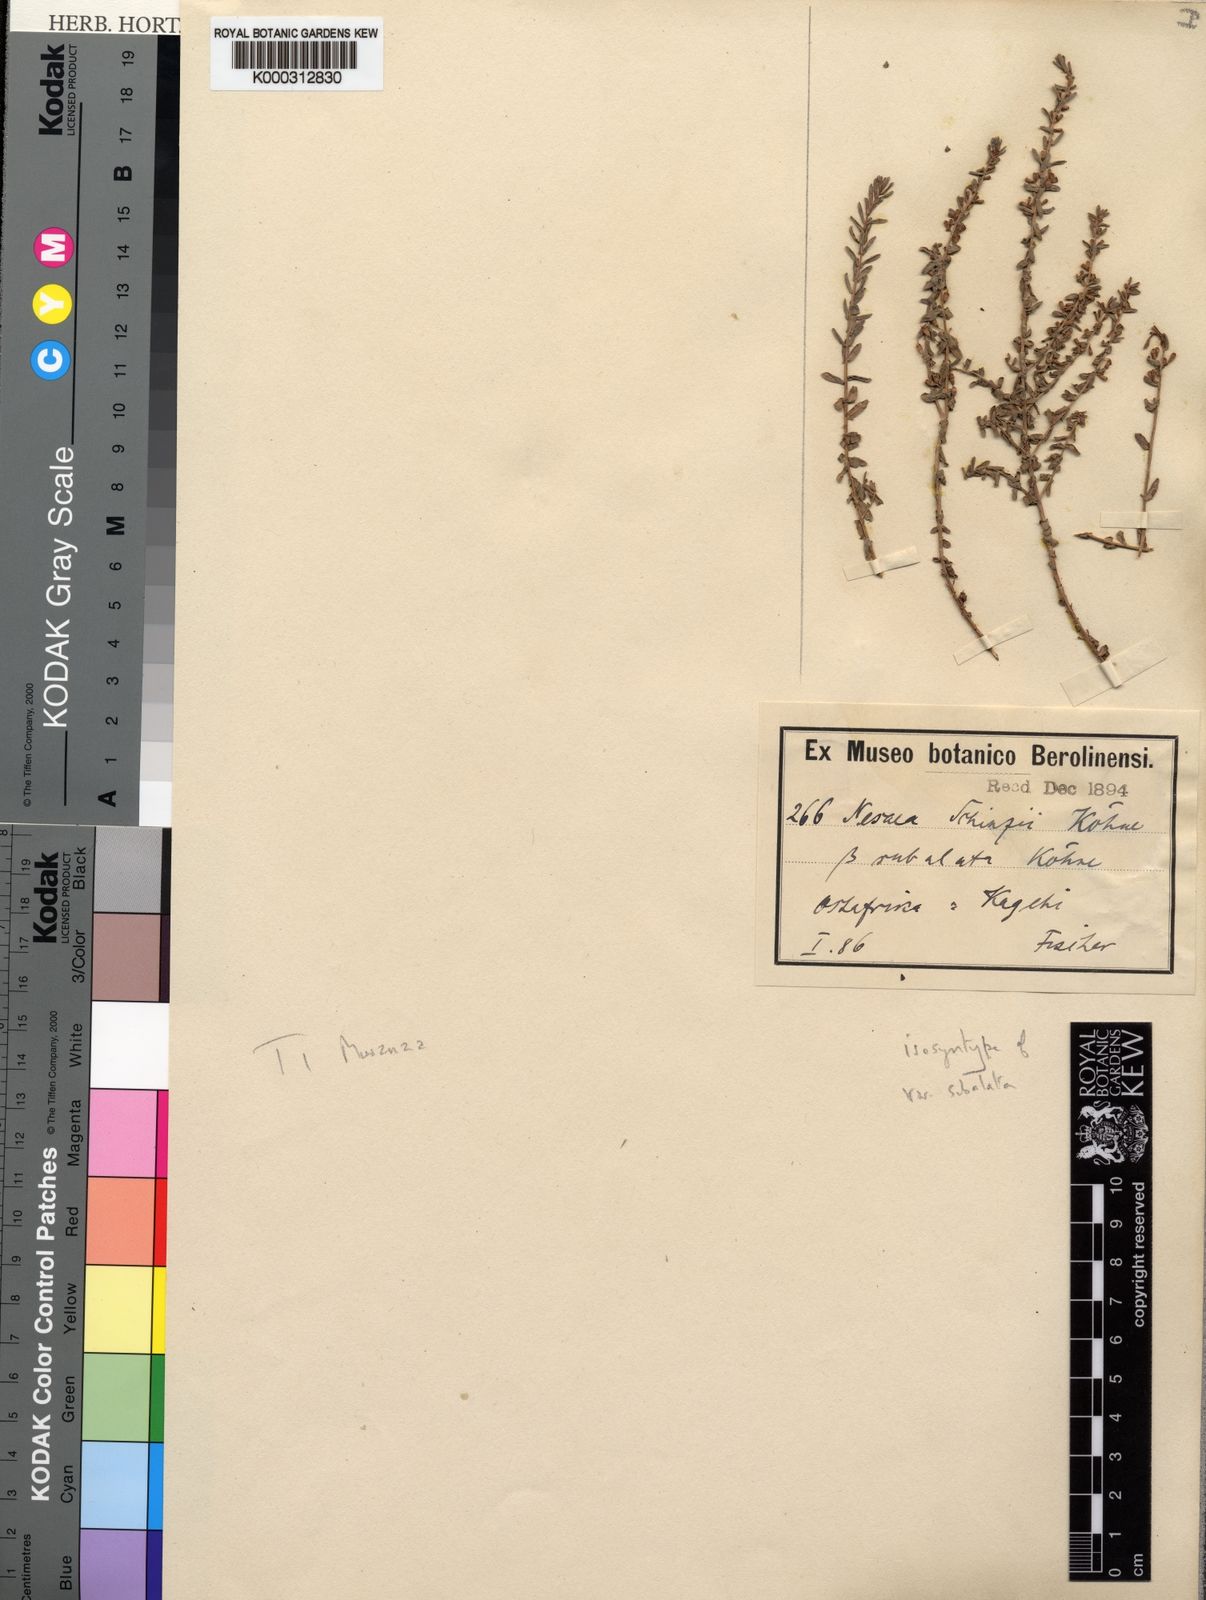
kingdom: Plantae
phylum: Tracheophyta
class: Magnoliopsida
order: Myrtales
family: Lythraceae
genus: Ammannia
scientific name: Ammannia schinzii
